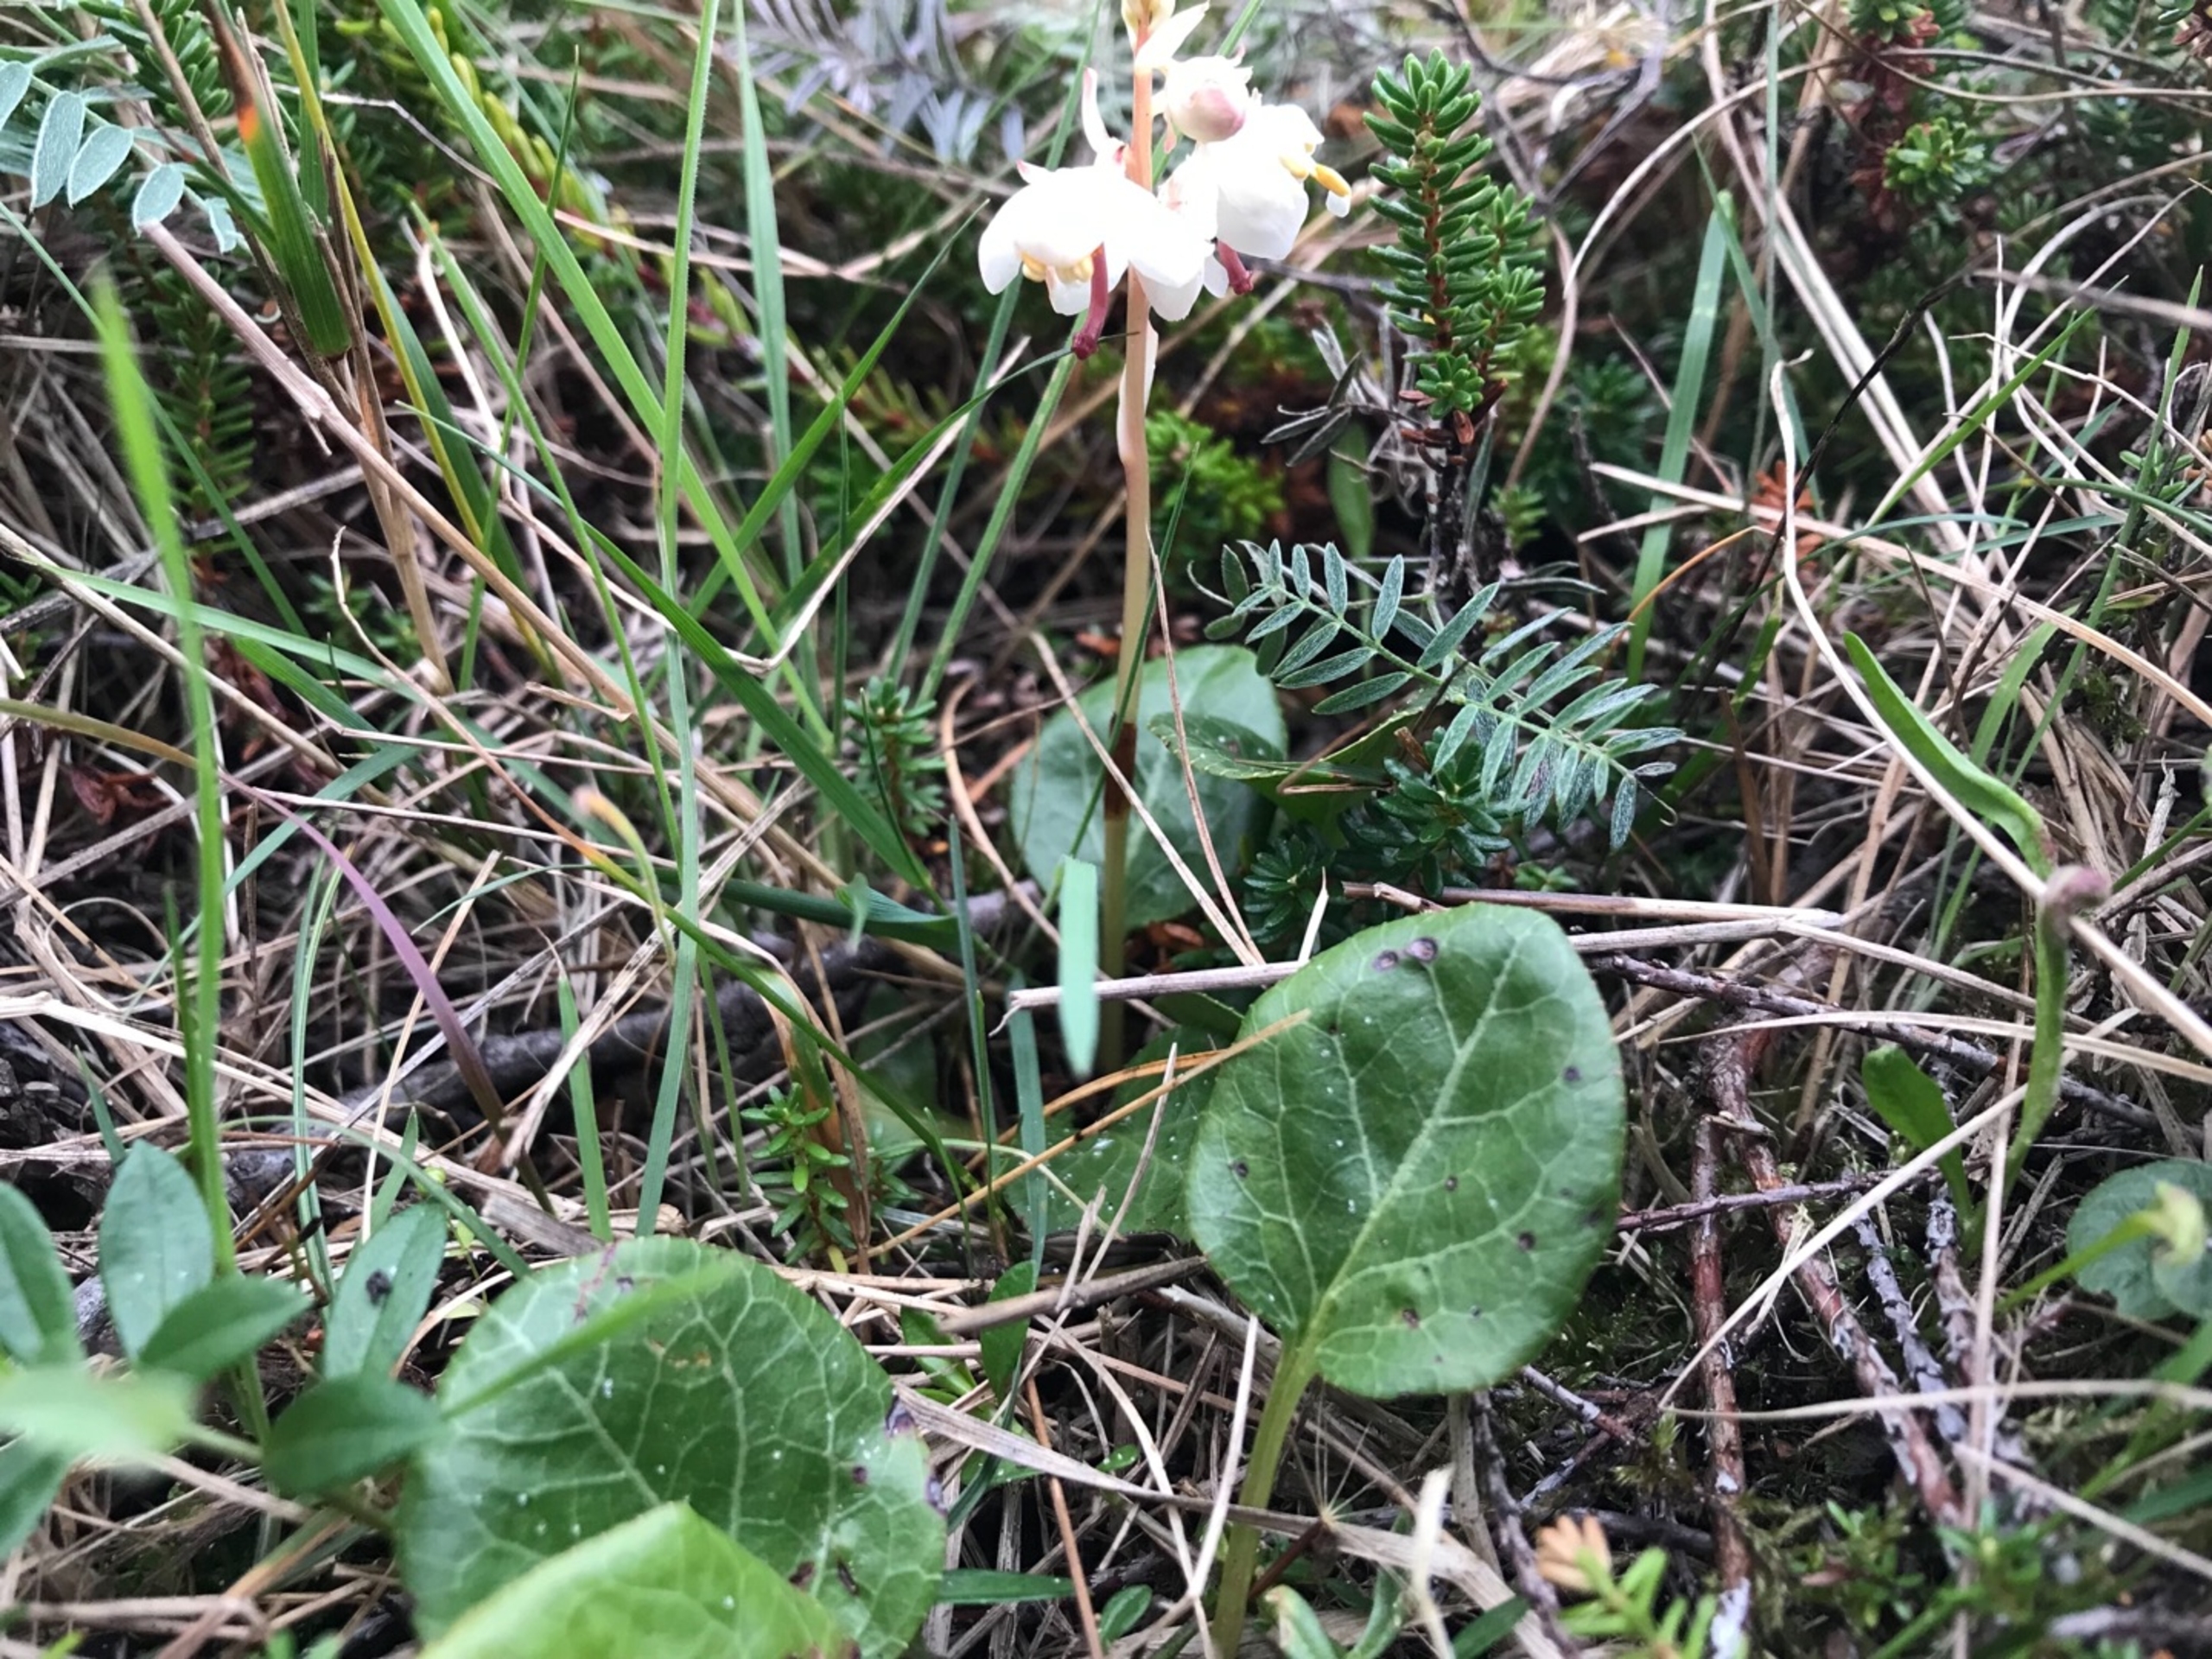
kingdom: Plantae
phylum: Tracheophyta
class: Magnoliopsida
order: Ericales
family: Ericaceae
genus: Pyrola
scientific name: Pyrola rotundifolia
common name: Mose-vintergrøn
